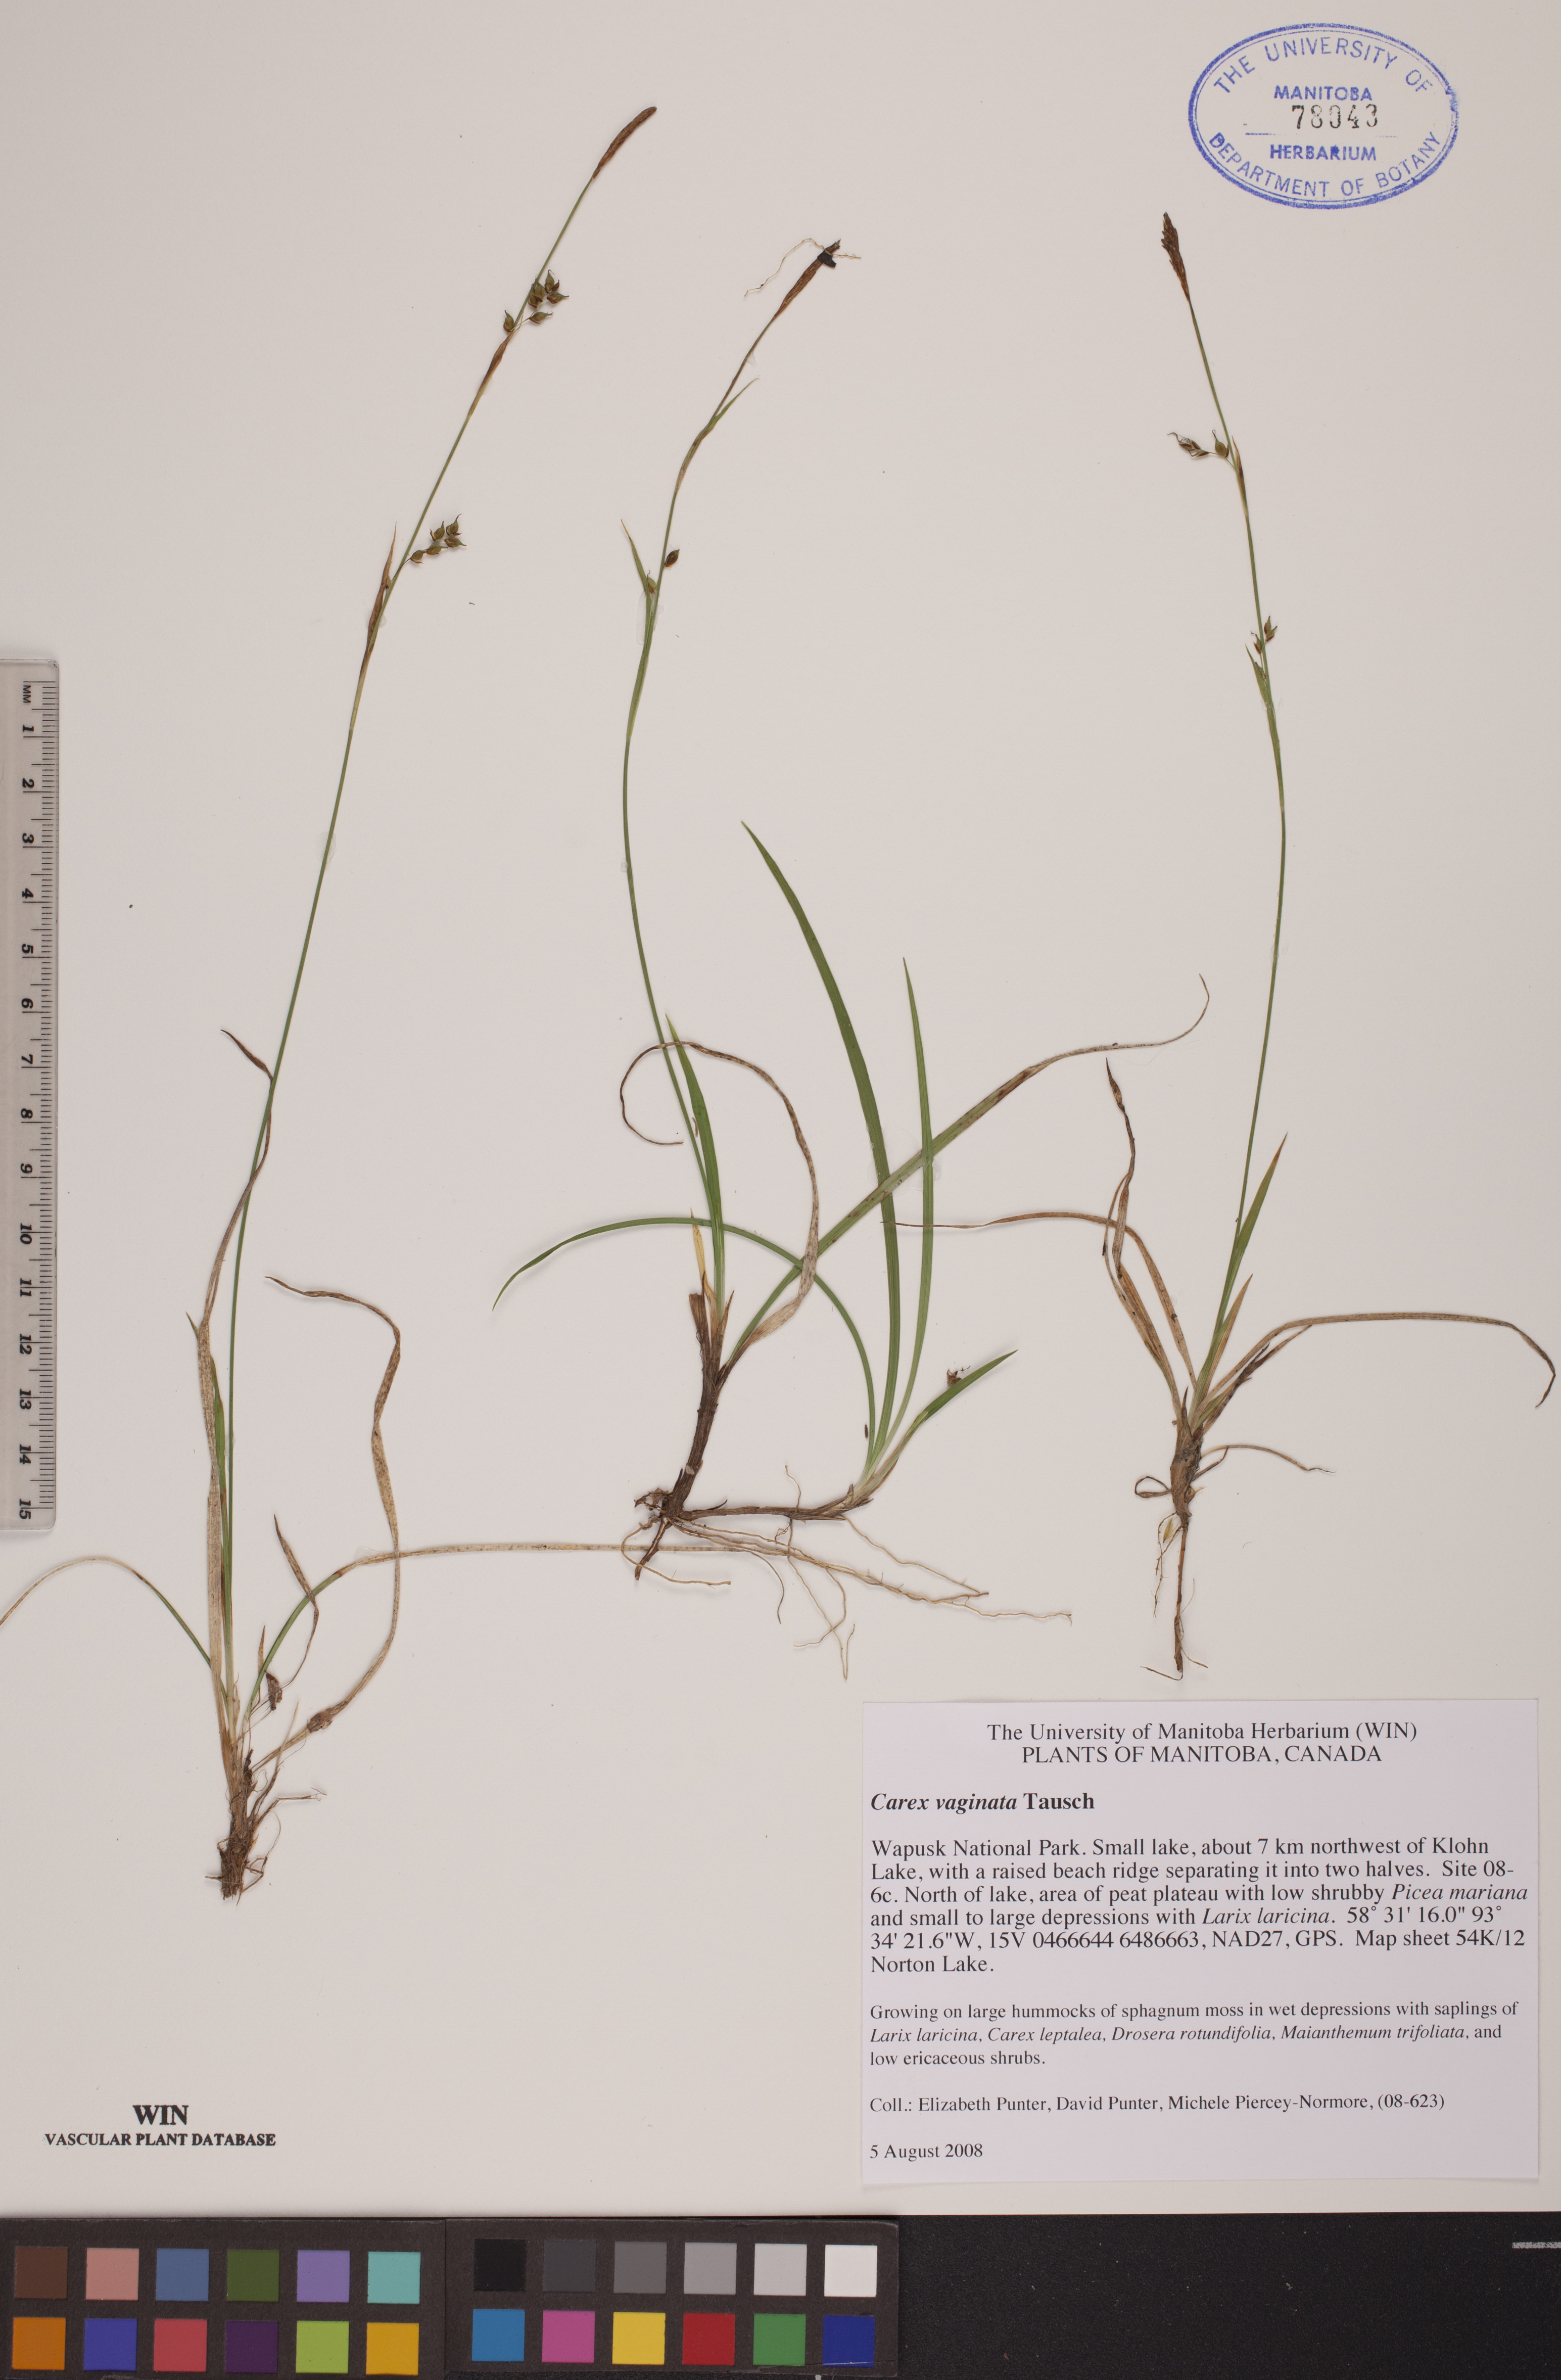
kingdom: Plantae
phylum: Tracheophyta
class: Liliopsida
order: Poales
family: Cyperaceae
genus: Carex
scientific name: Carex vaginata
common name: Sheathed sedge
